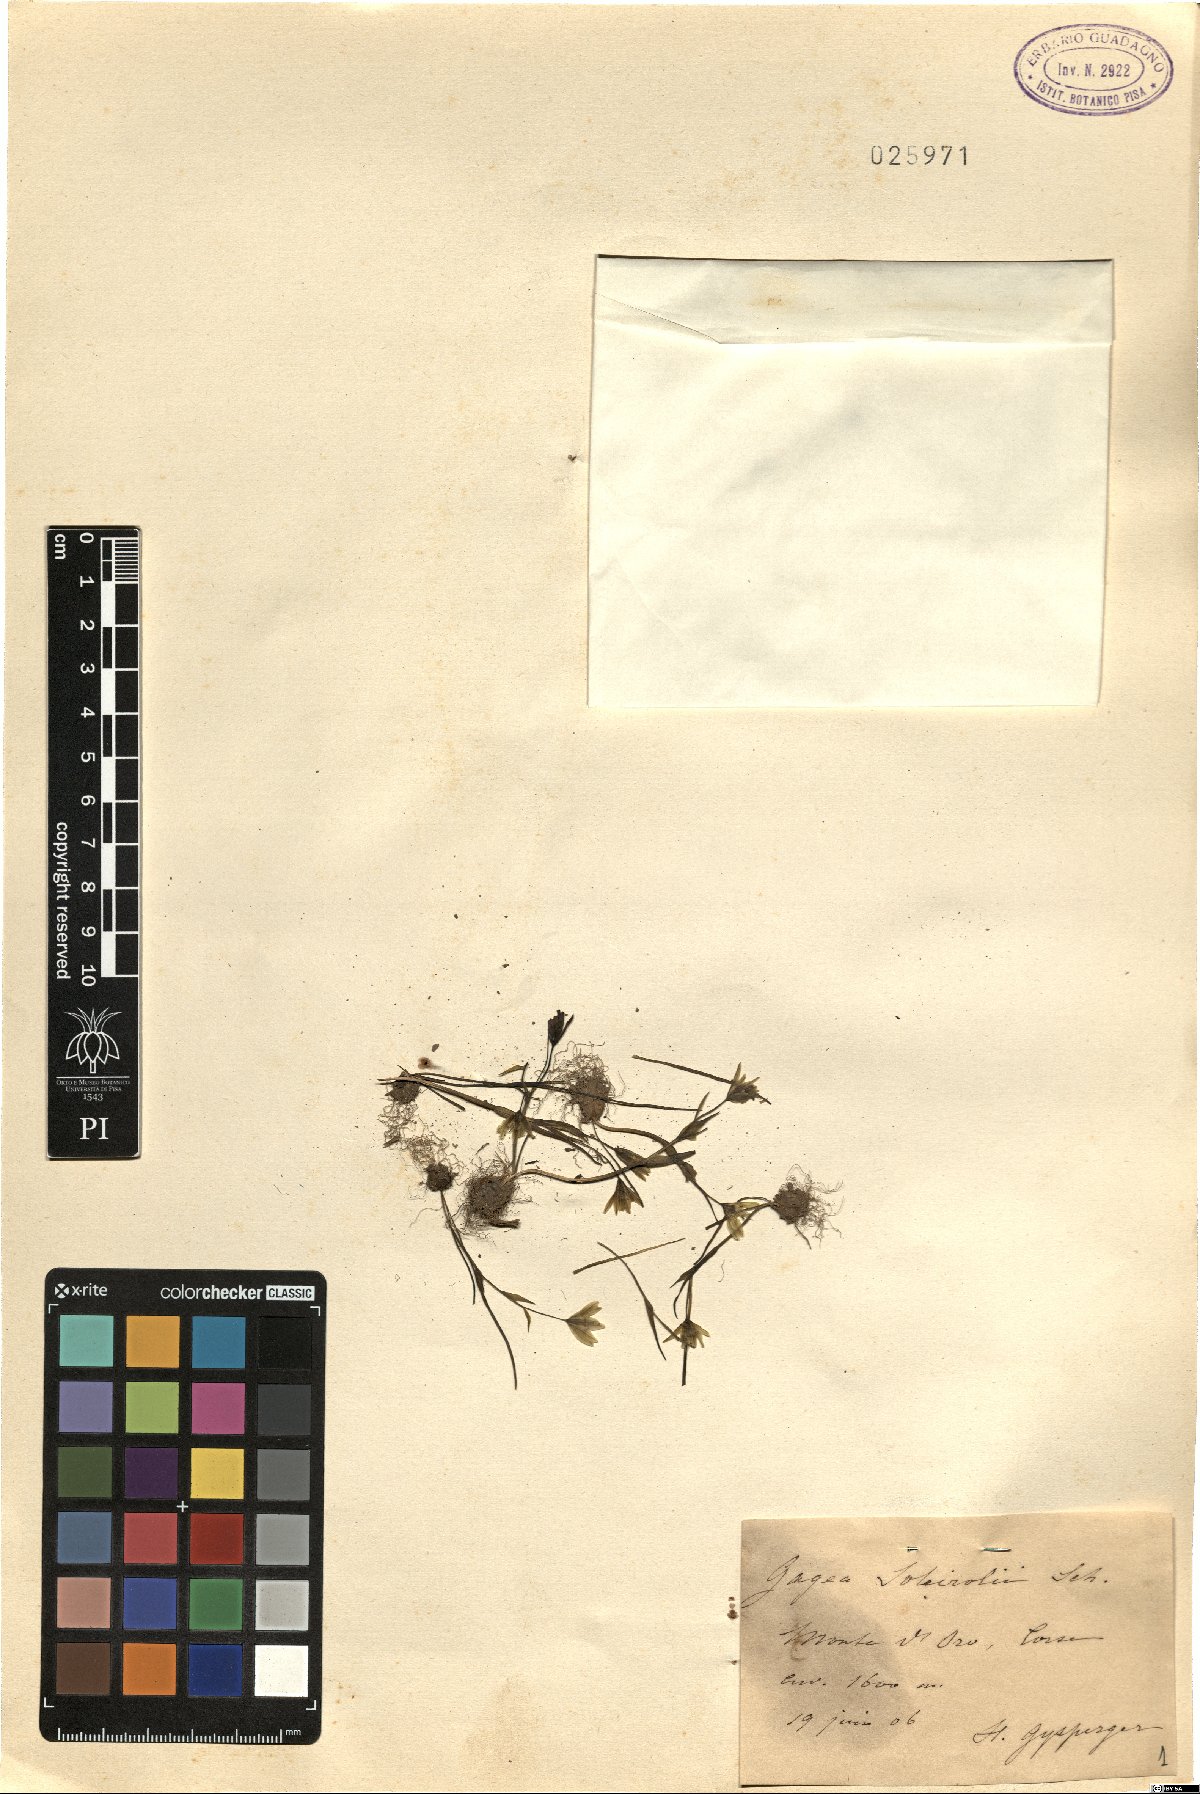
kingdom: Plantae
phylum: Tracheophyta
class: Liliopsida
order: Liliales
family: Liliaceae
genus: Gagea
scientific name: Gagea soleirolii
